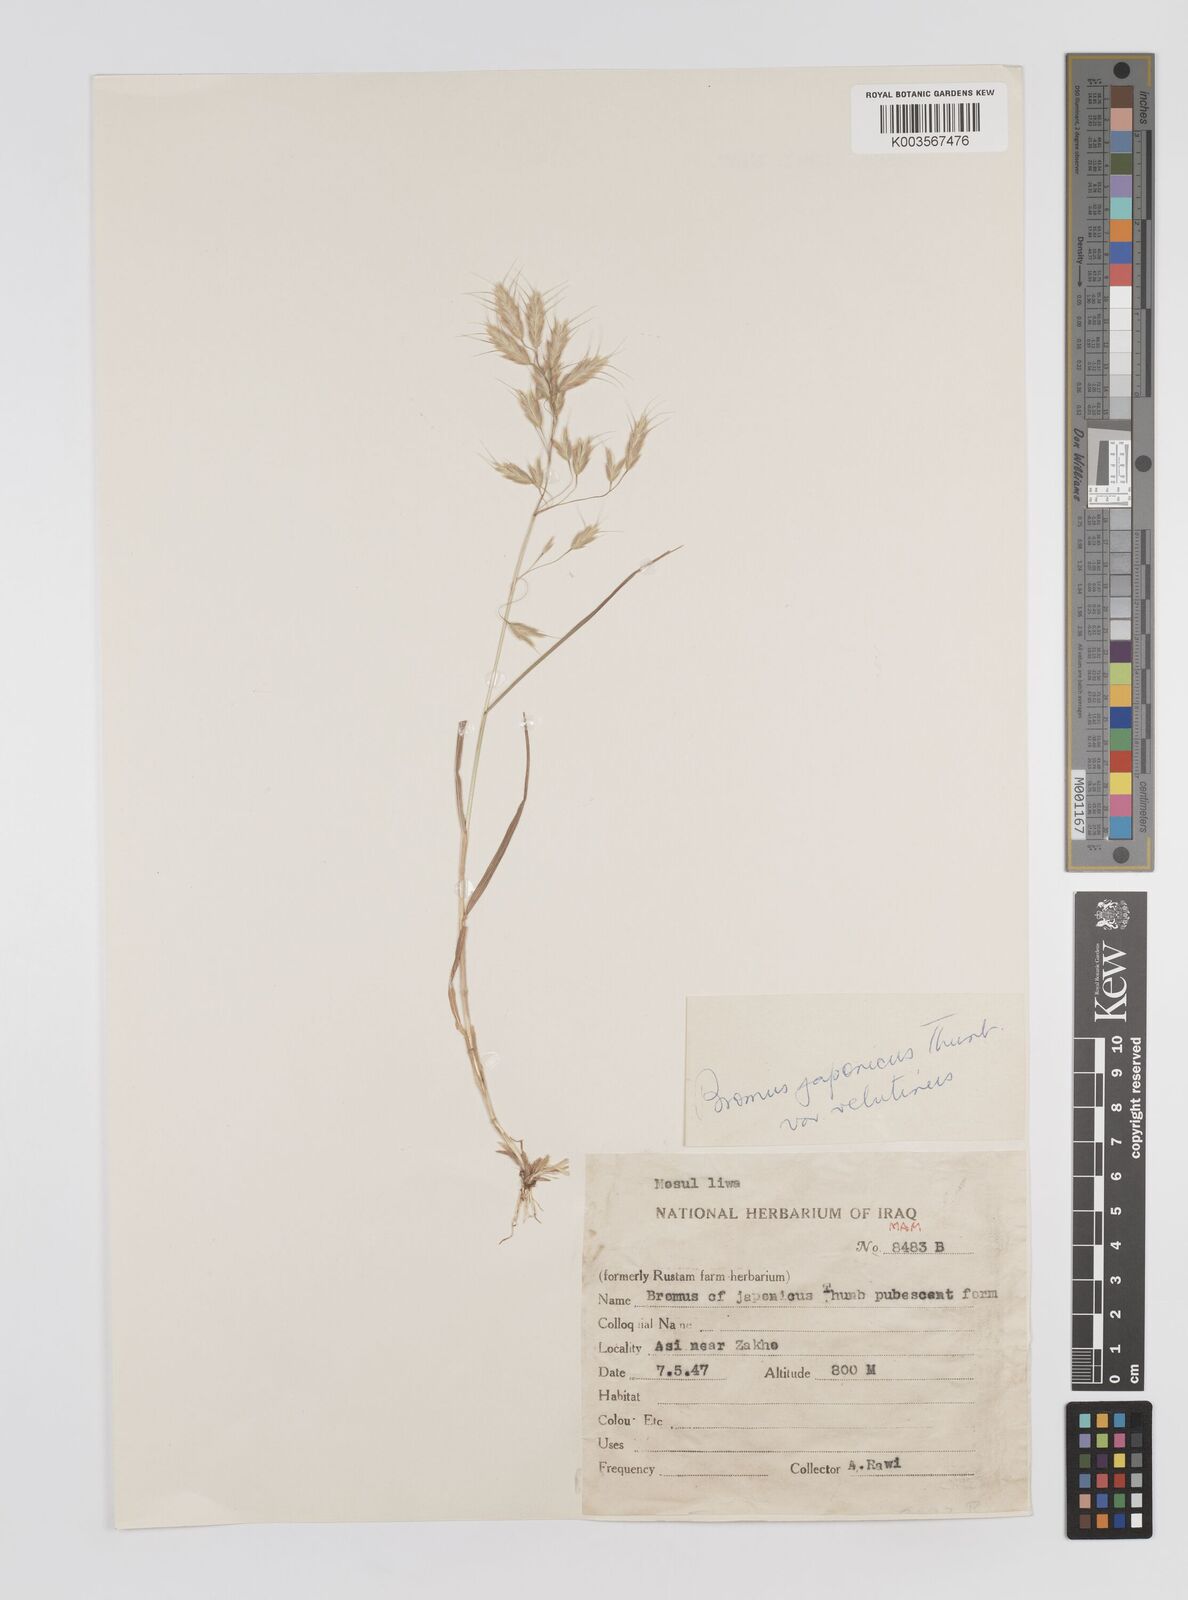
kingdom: Plantae
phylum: Tracheophyta
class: Liliopsida
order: Poales
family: Poaceae
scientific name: Poaceae
